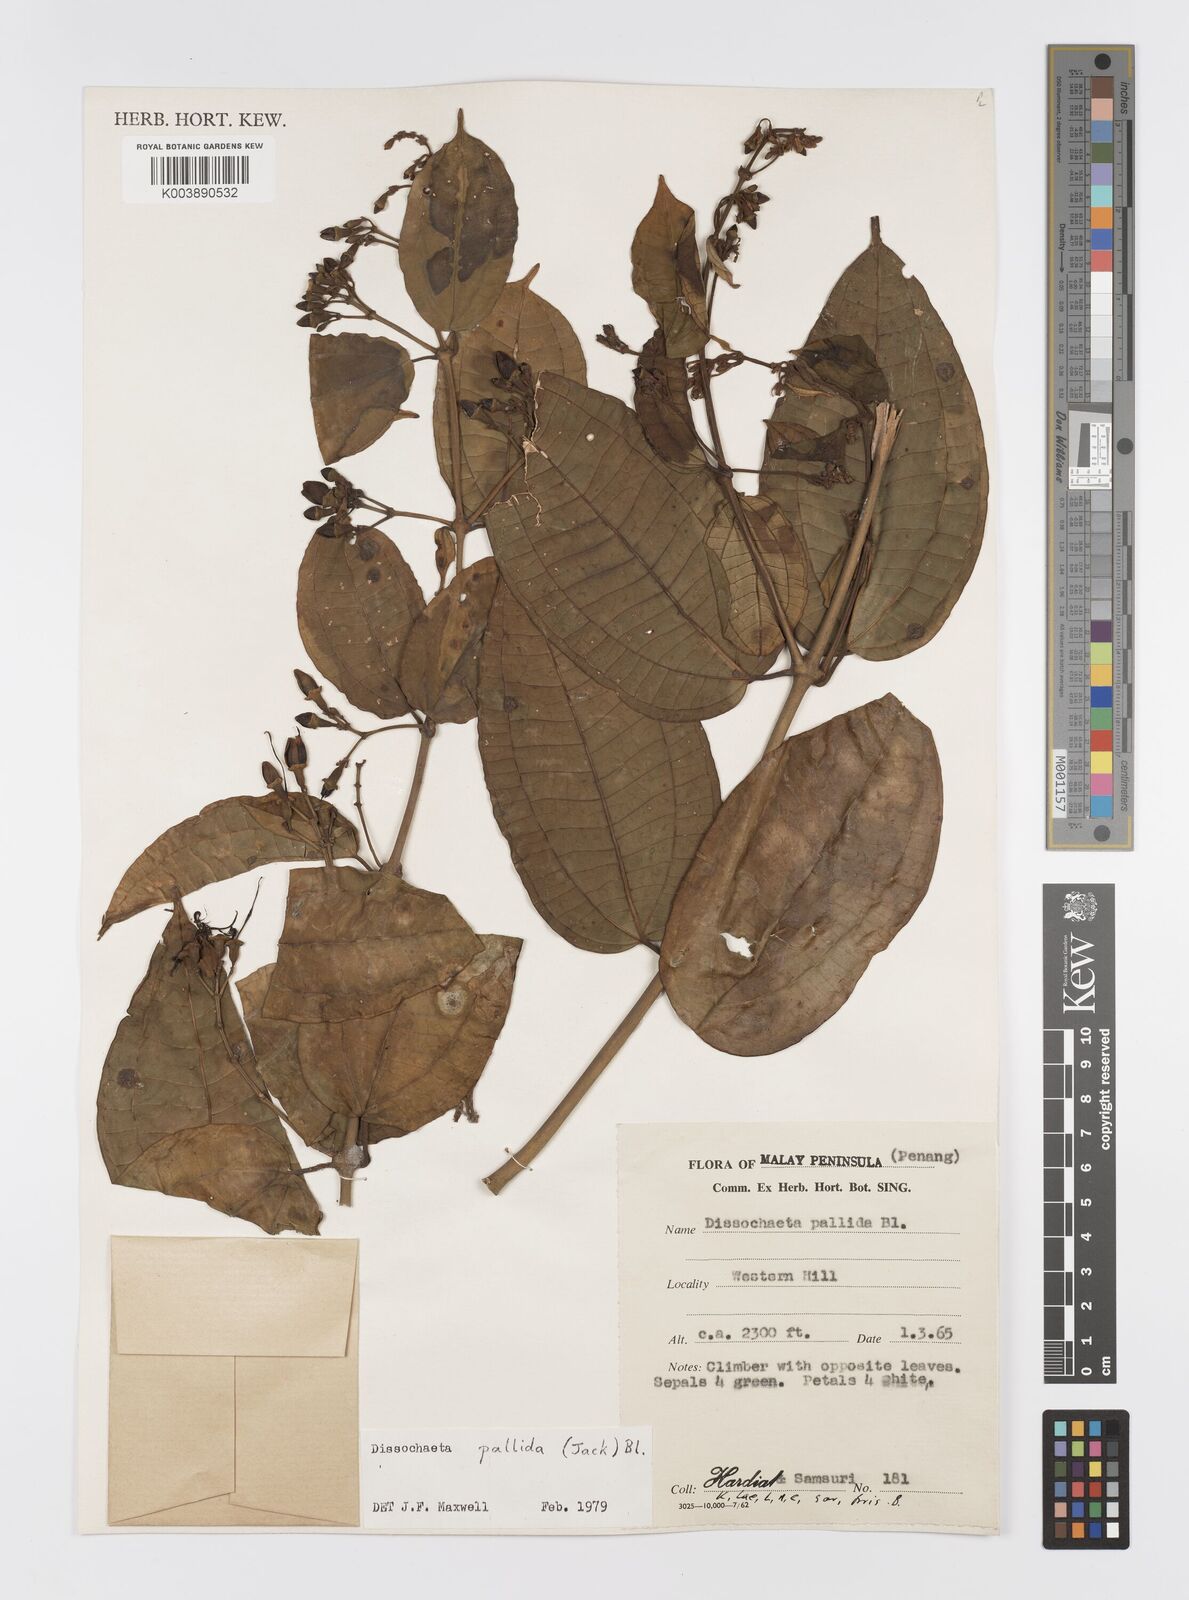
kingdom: Plantae
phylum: Tracheophyta
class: Magnoliopsida
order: Myrtales
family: Melastomataceae
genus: Dissochaeta
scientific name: Dissochaeta pallida
